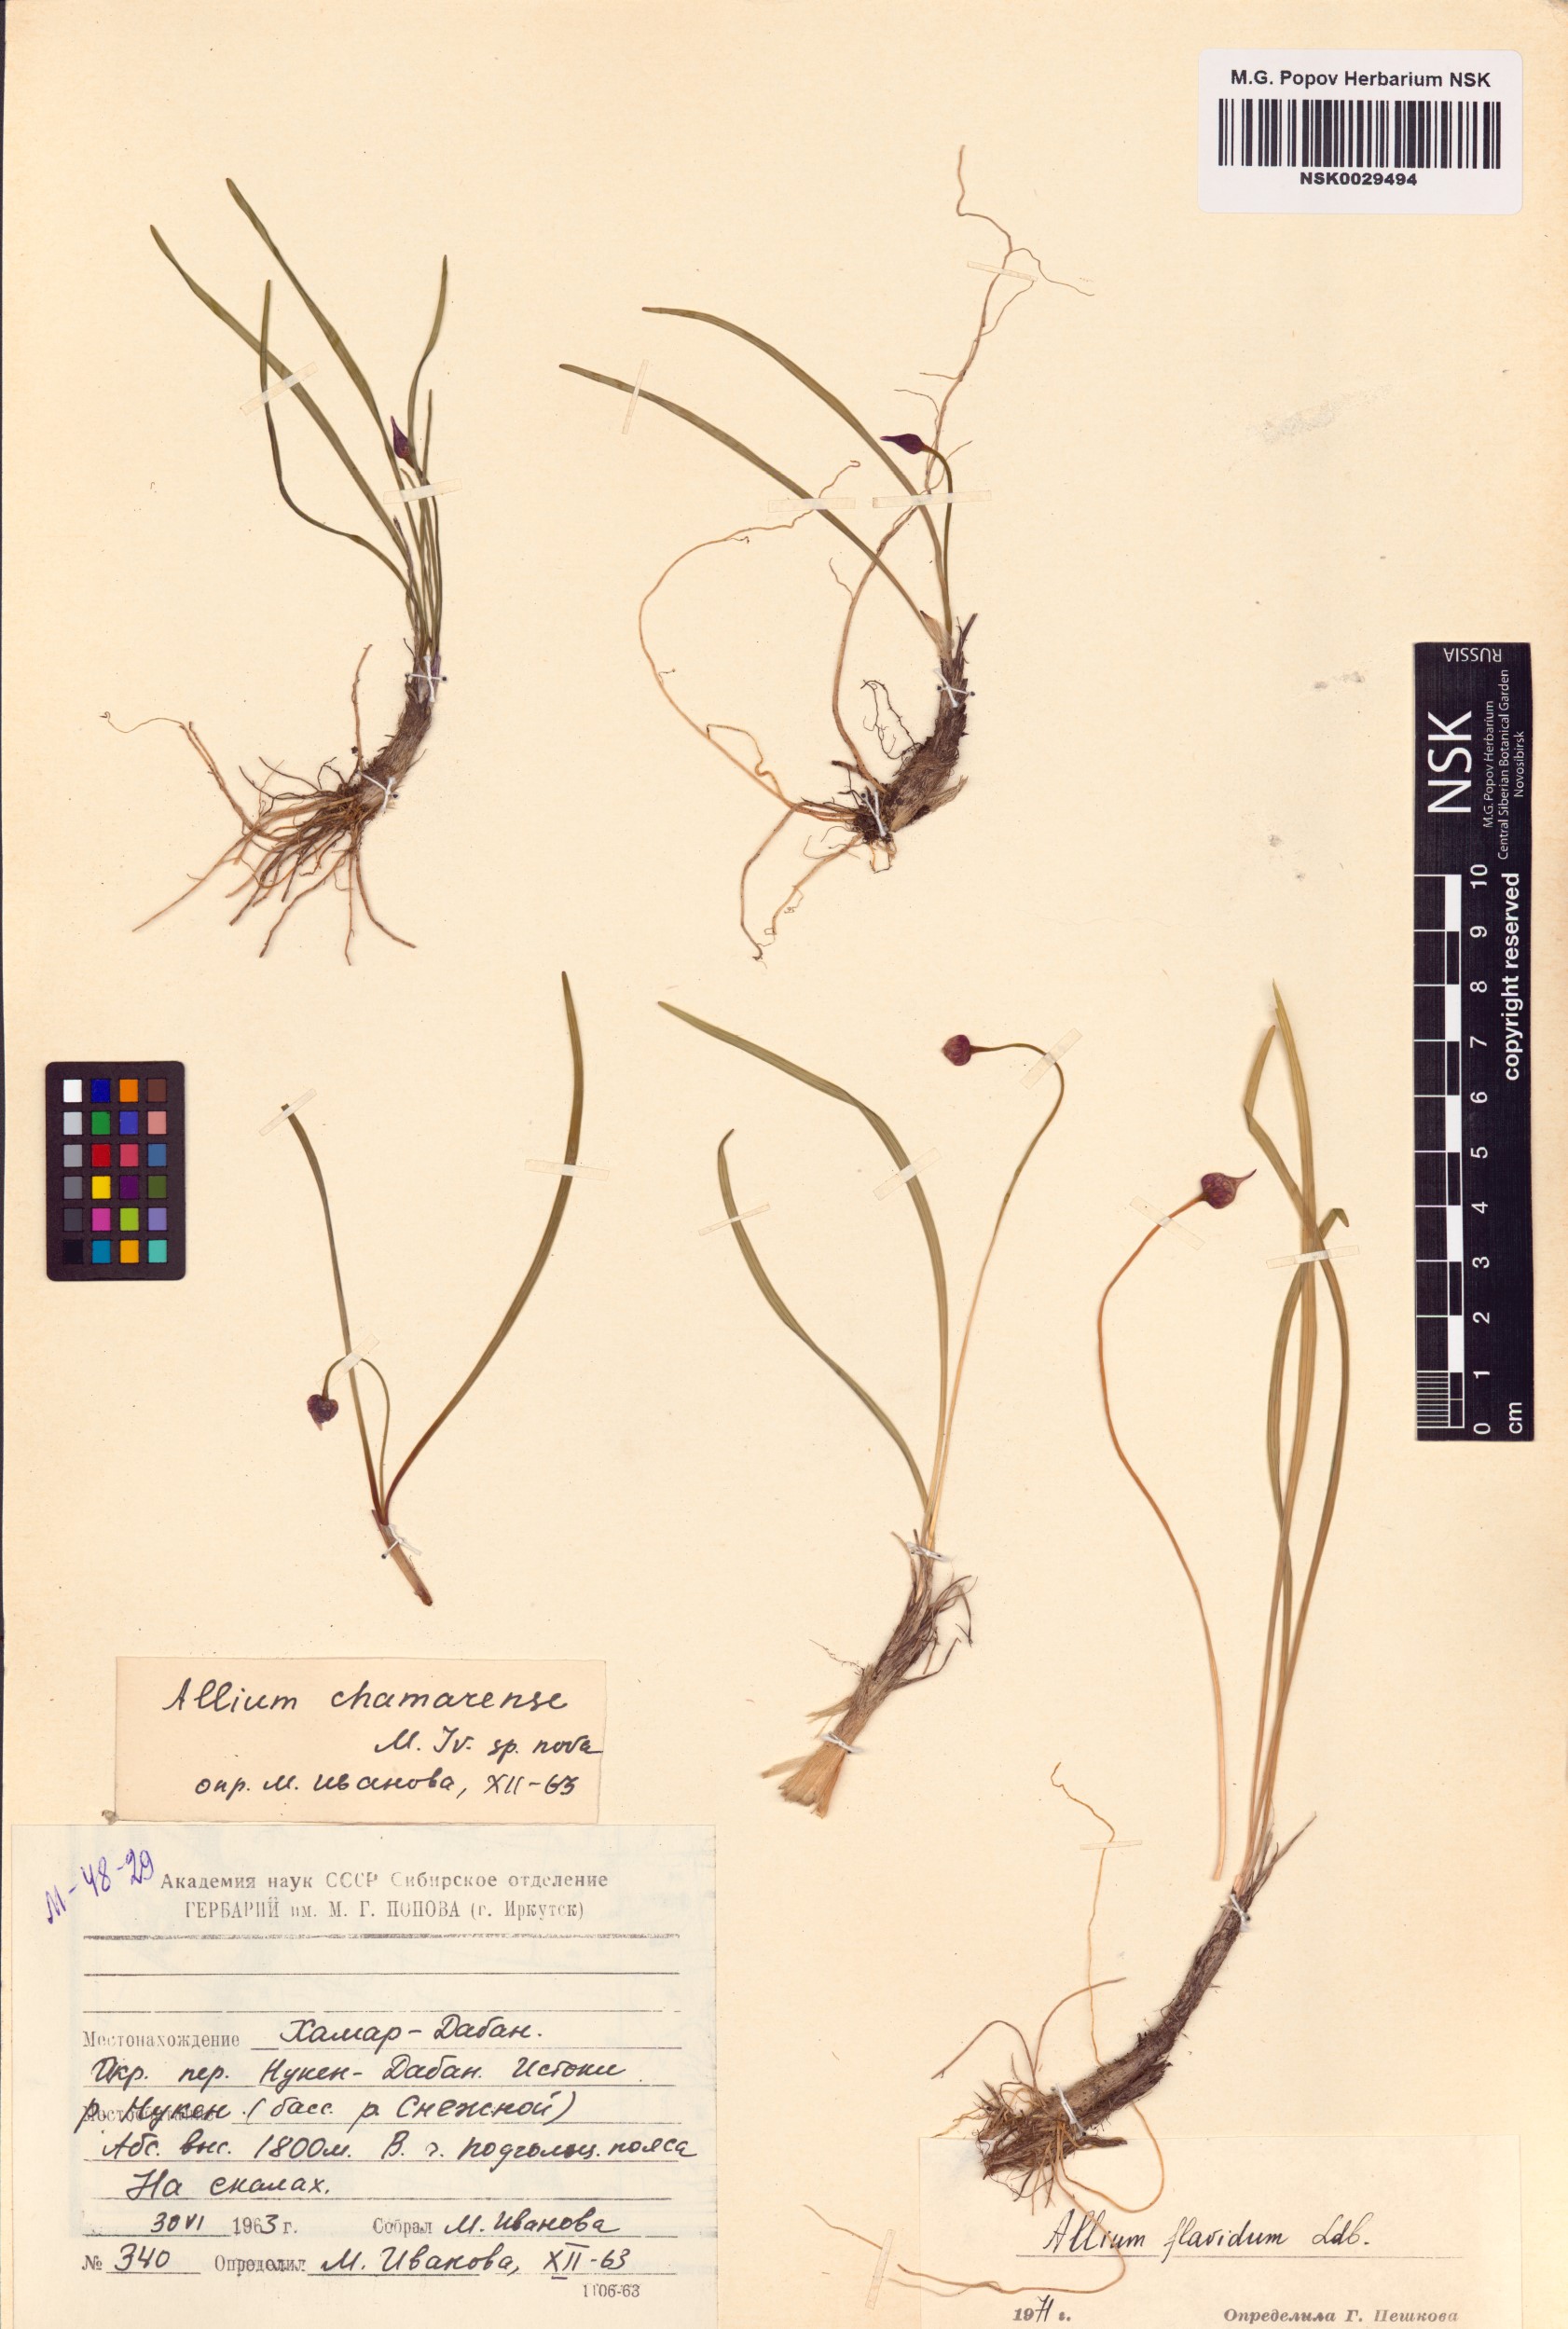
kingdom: Plantae
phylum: Tracheophyta
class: Liliopsida
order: Asparagales
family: Amaryllidaceae
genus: Allium
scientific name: Allium flavidum
